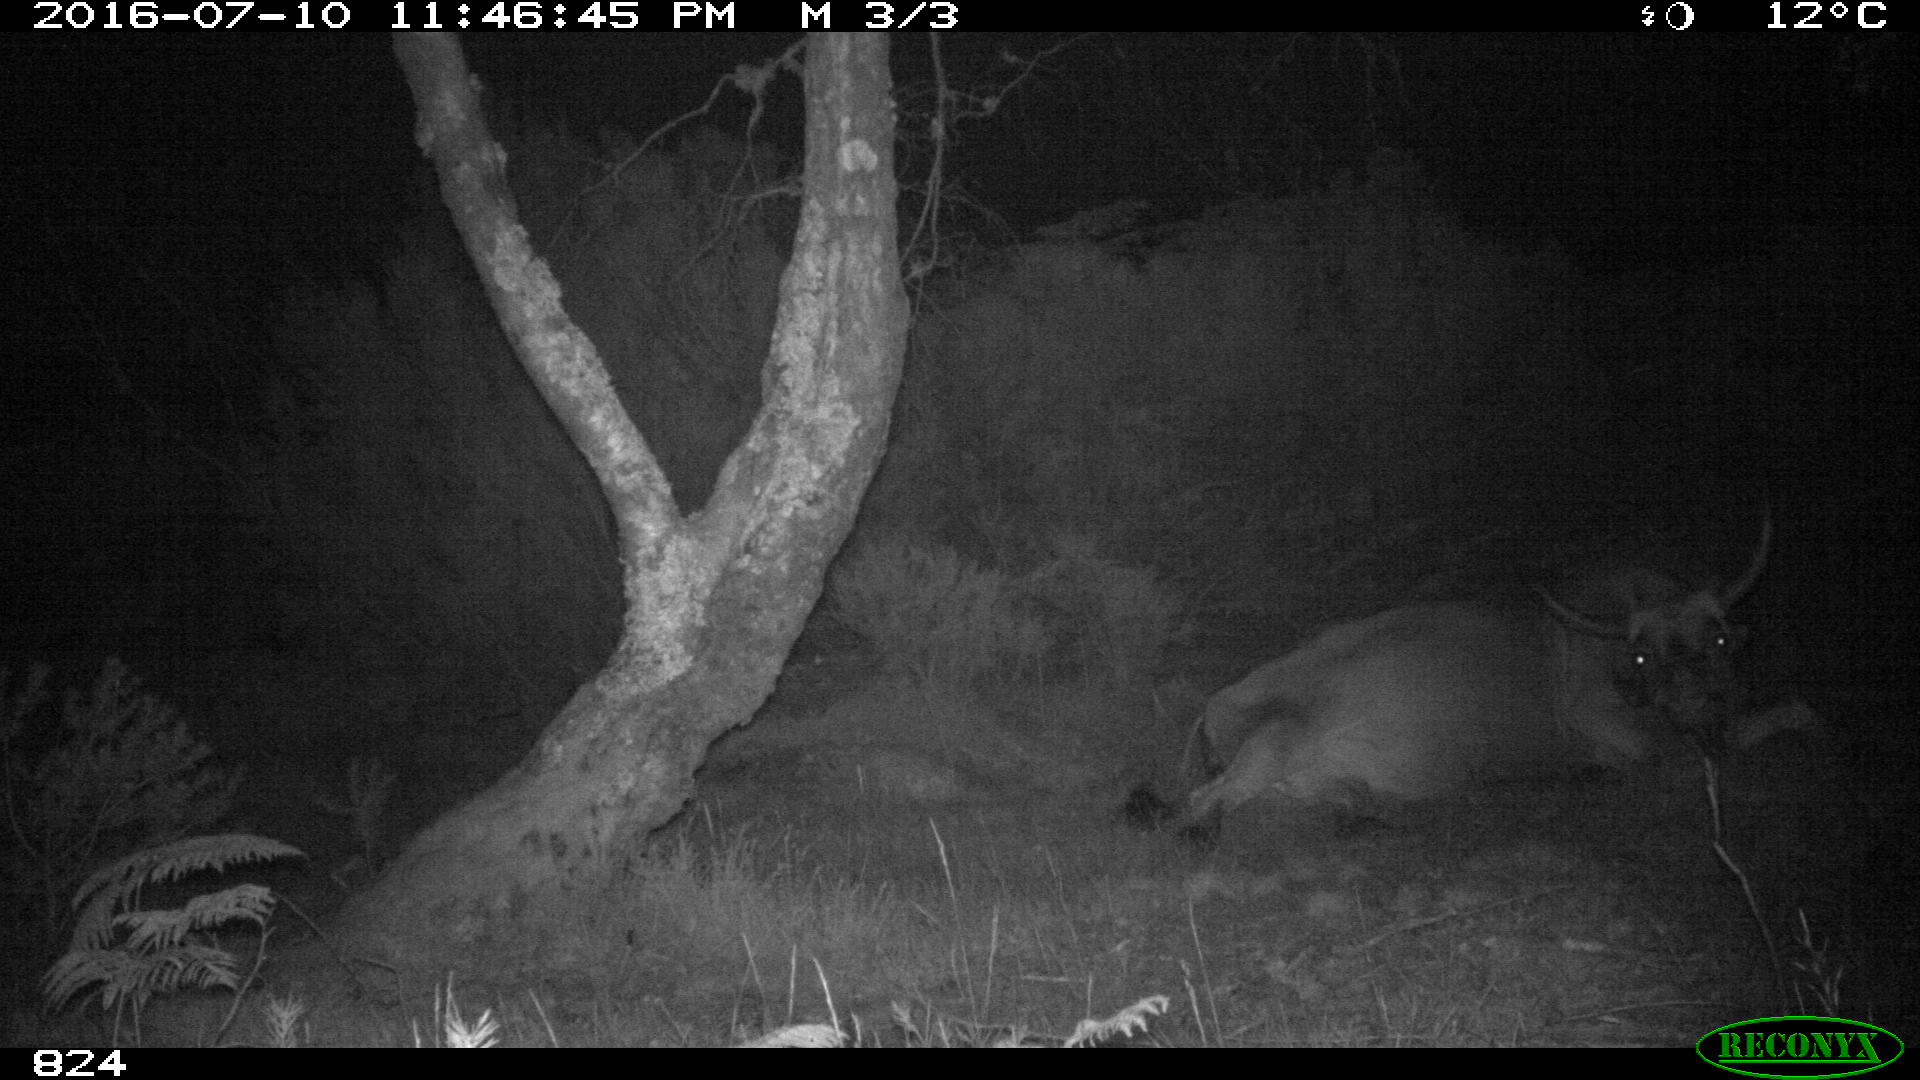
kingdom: Animalia
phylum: Chordata
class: Mammalia
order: Artiodactyla
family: Bovidae
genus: Bos
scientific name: Bos taurus
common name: Domesticated cattle
